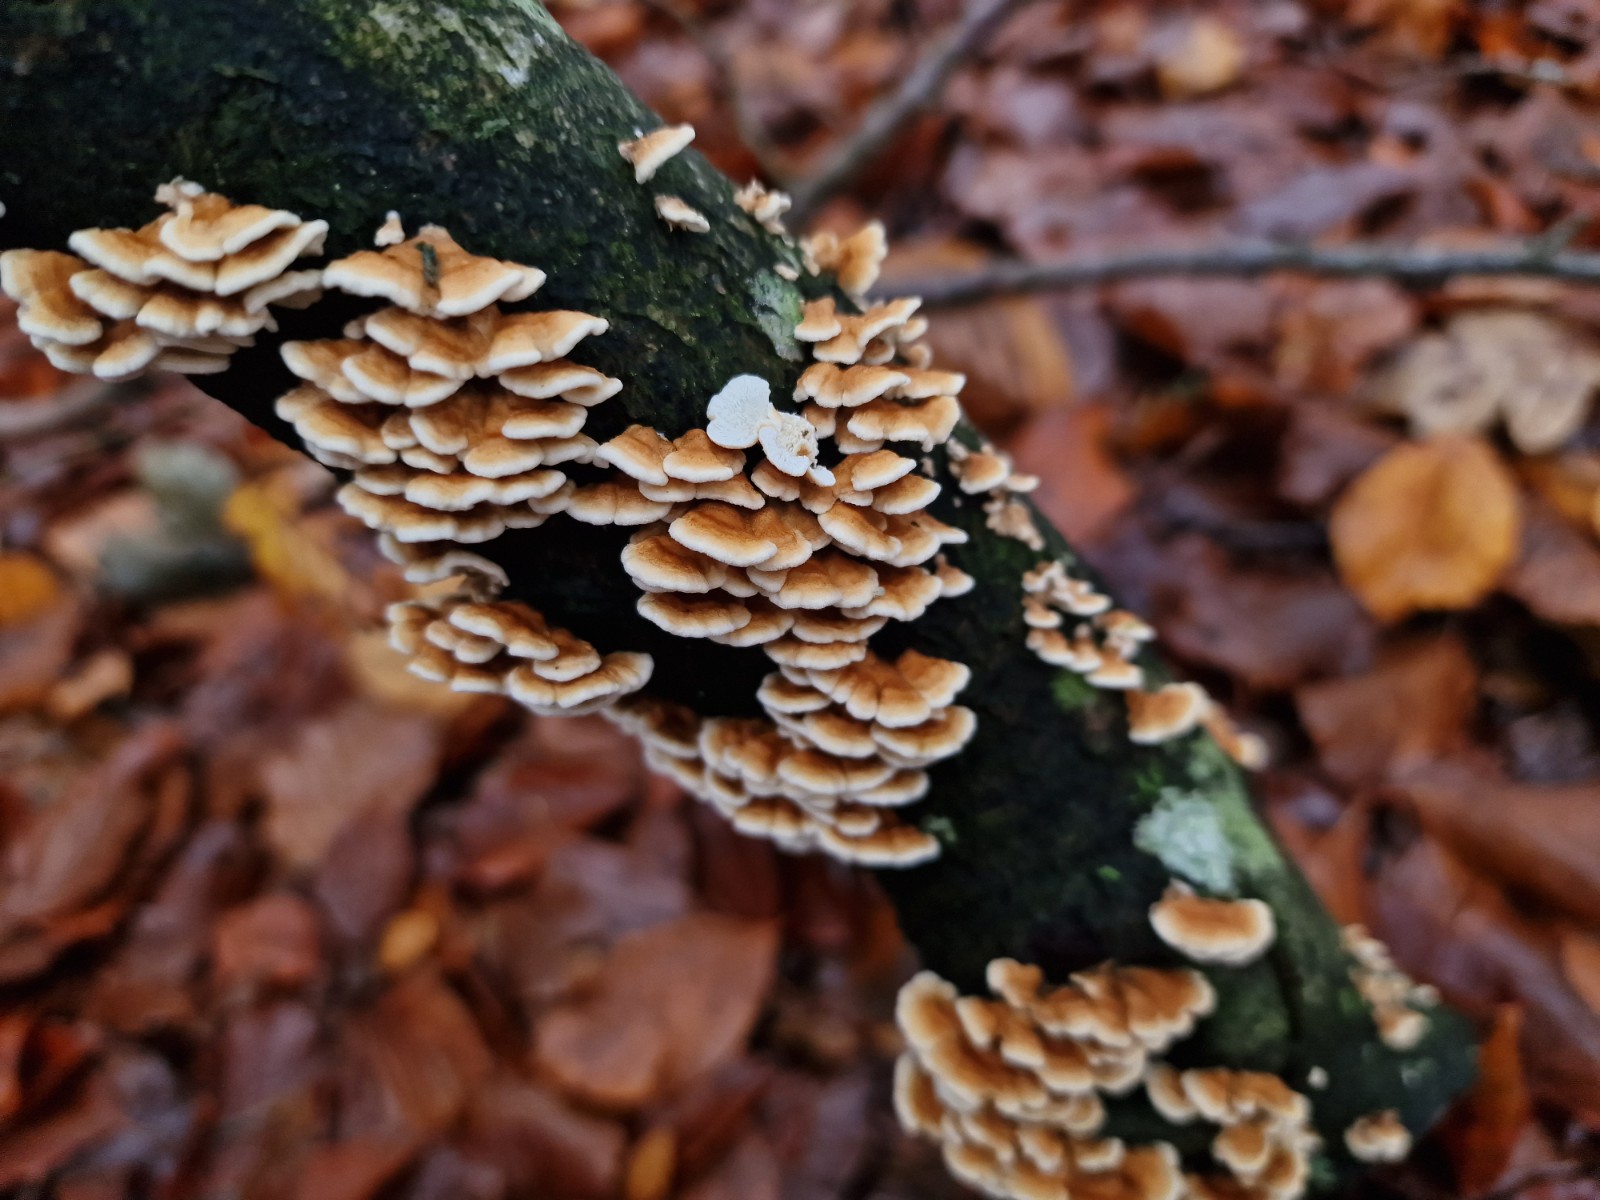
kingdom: Fungi
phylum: Basidiomycota
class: Agaricomycetes
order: Amylocorticiales
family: Amylocorticiaceae
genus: Plicaturopsis
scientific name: Plicaturopsis crispa
